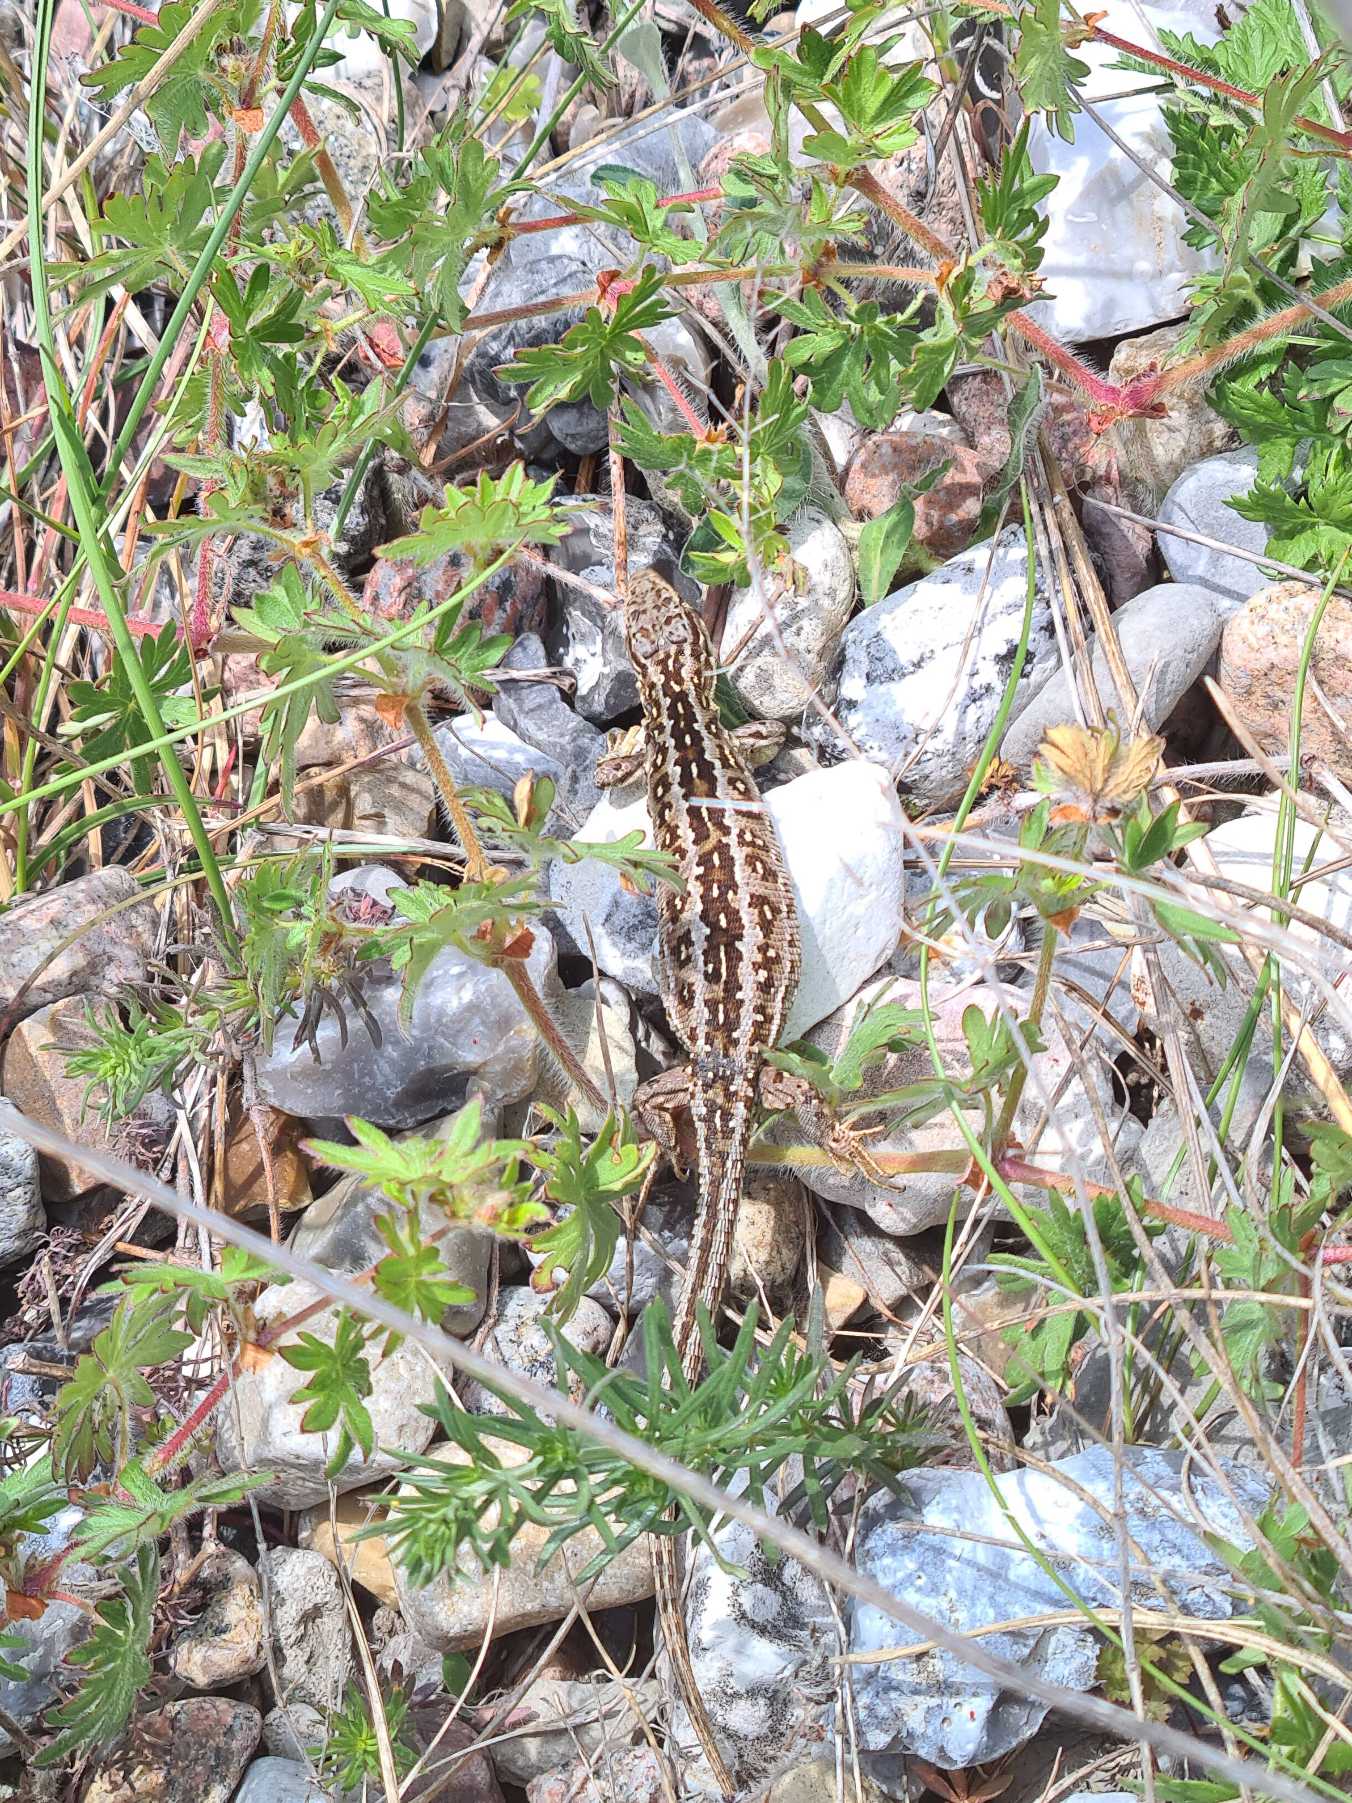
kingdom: Animalia
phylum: Chordata
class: Squamata
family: Lacertidae
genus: Lacerta
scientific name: Lacerta agilis
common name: Markfirben
